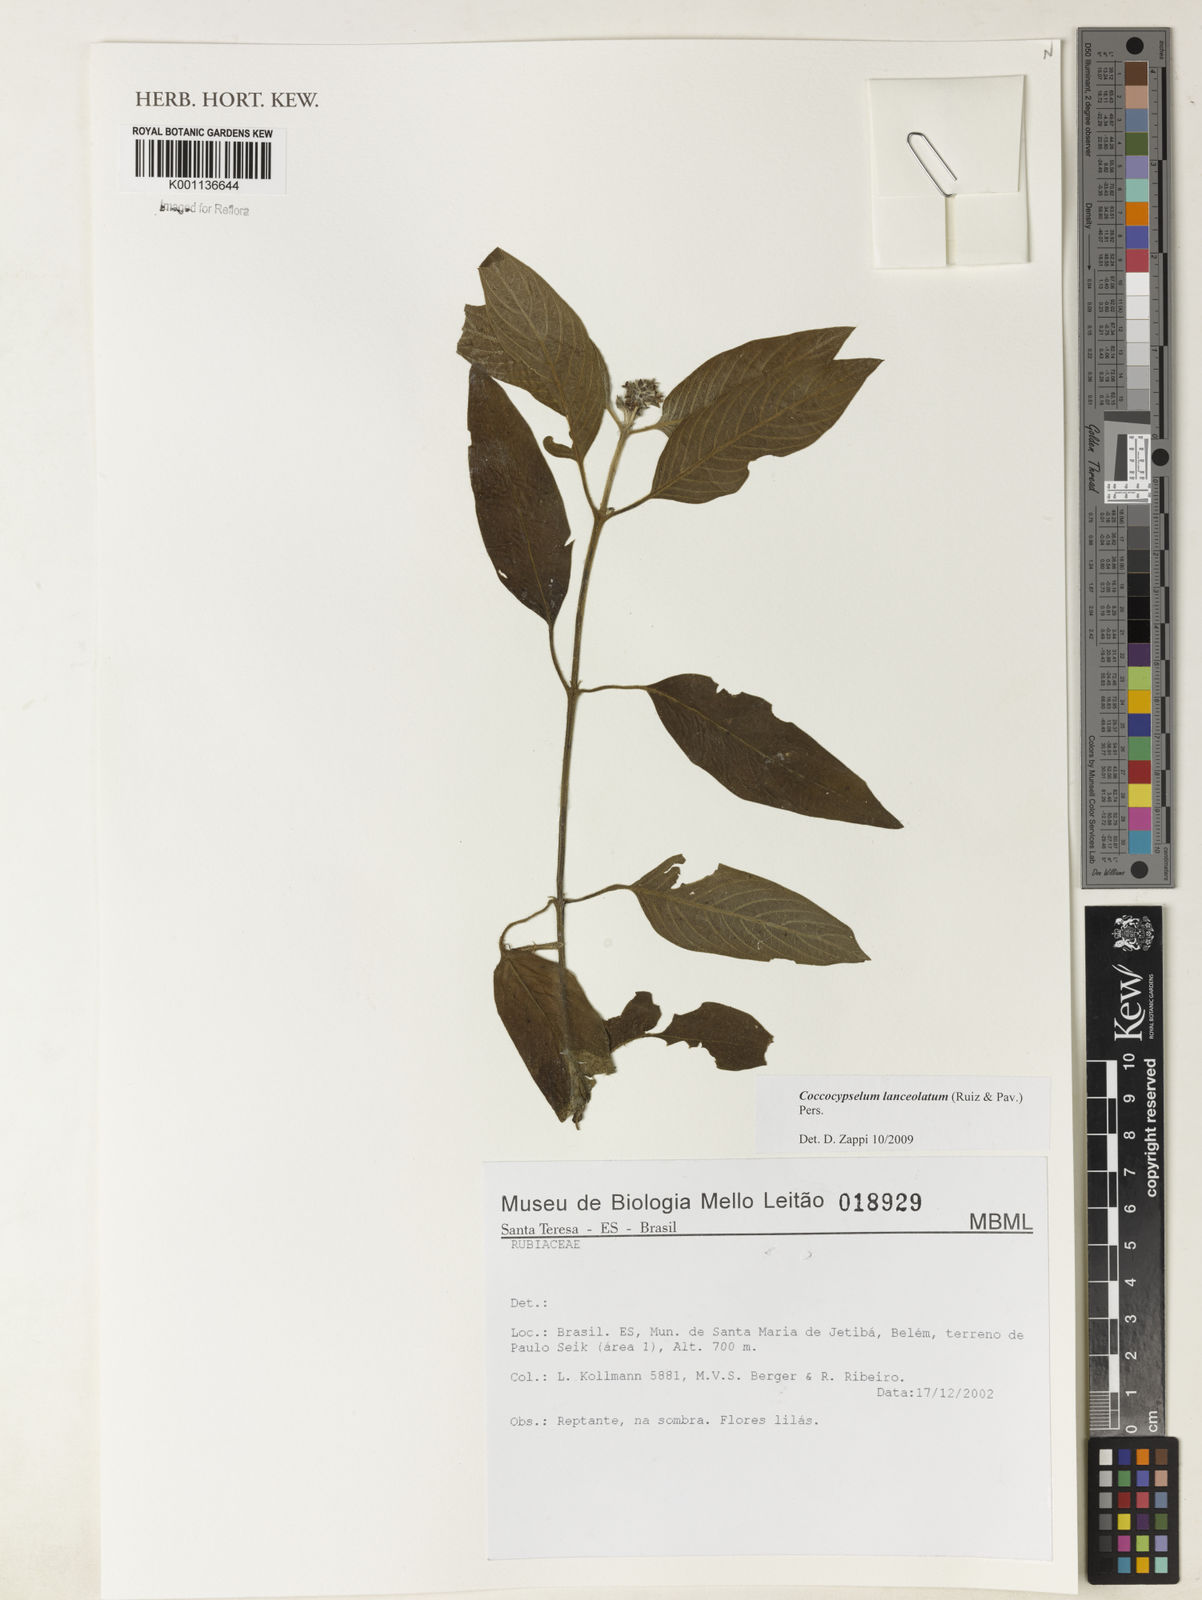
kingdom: Plantae
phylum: Tracheophyta
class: Magnoliopsida
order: Gentianales
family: Rubiaceae
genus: Coccocypselum
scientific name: Coccocypselum lanceolatum
